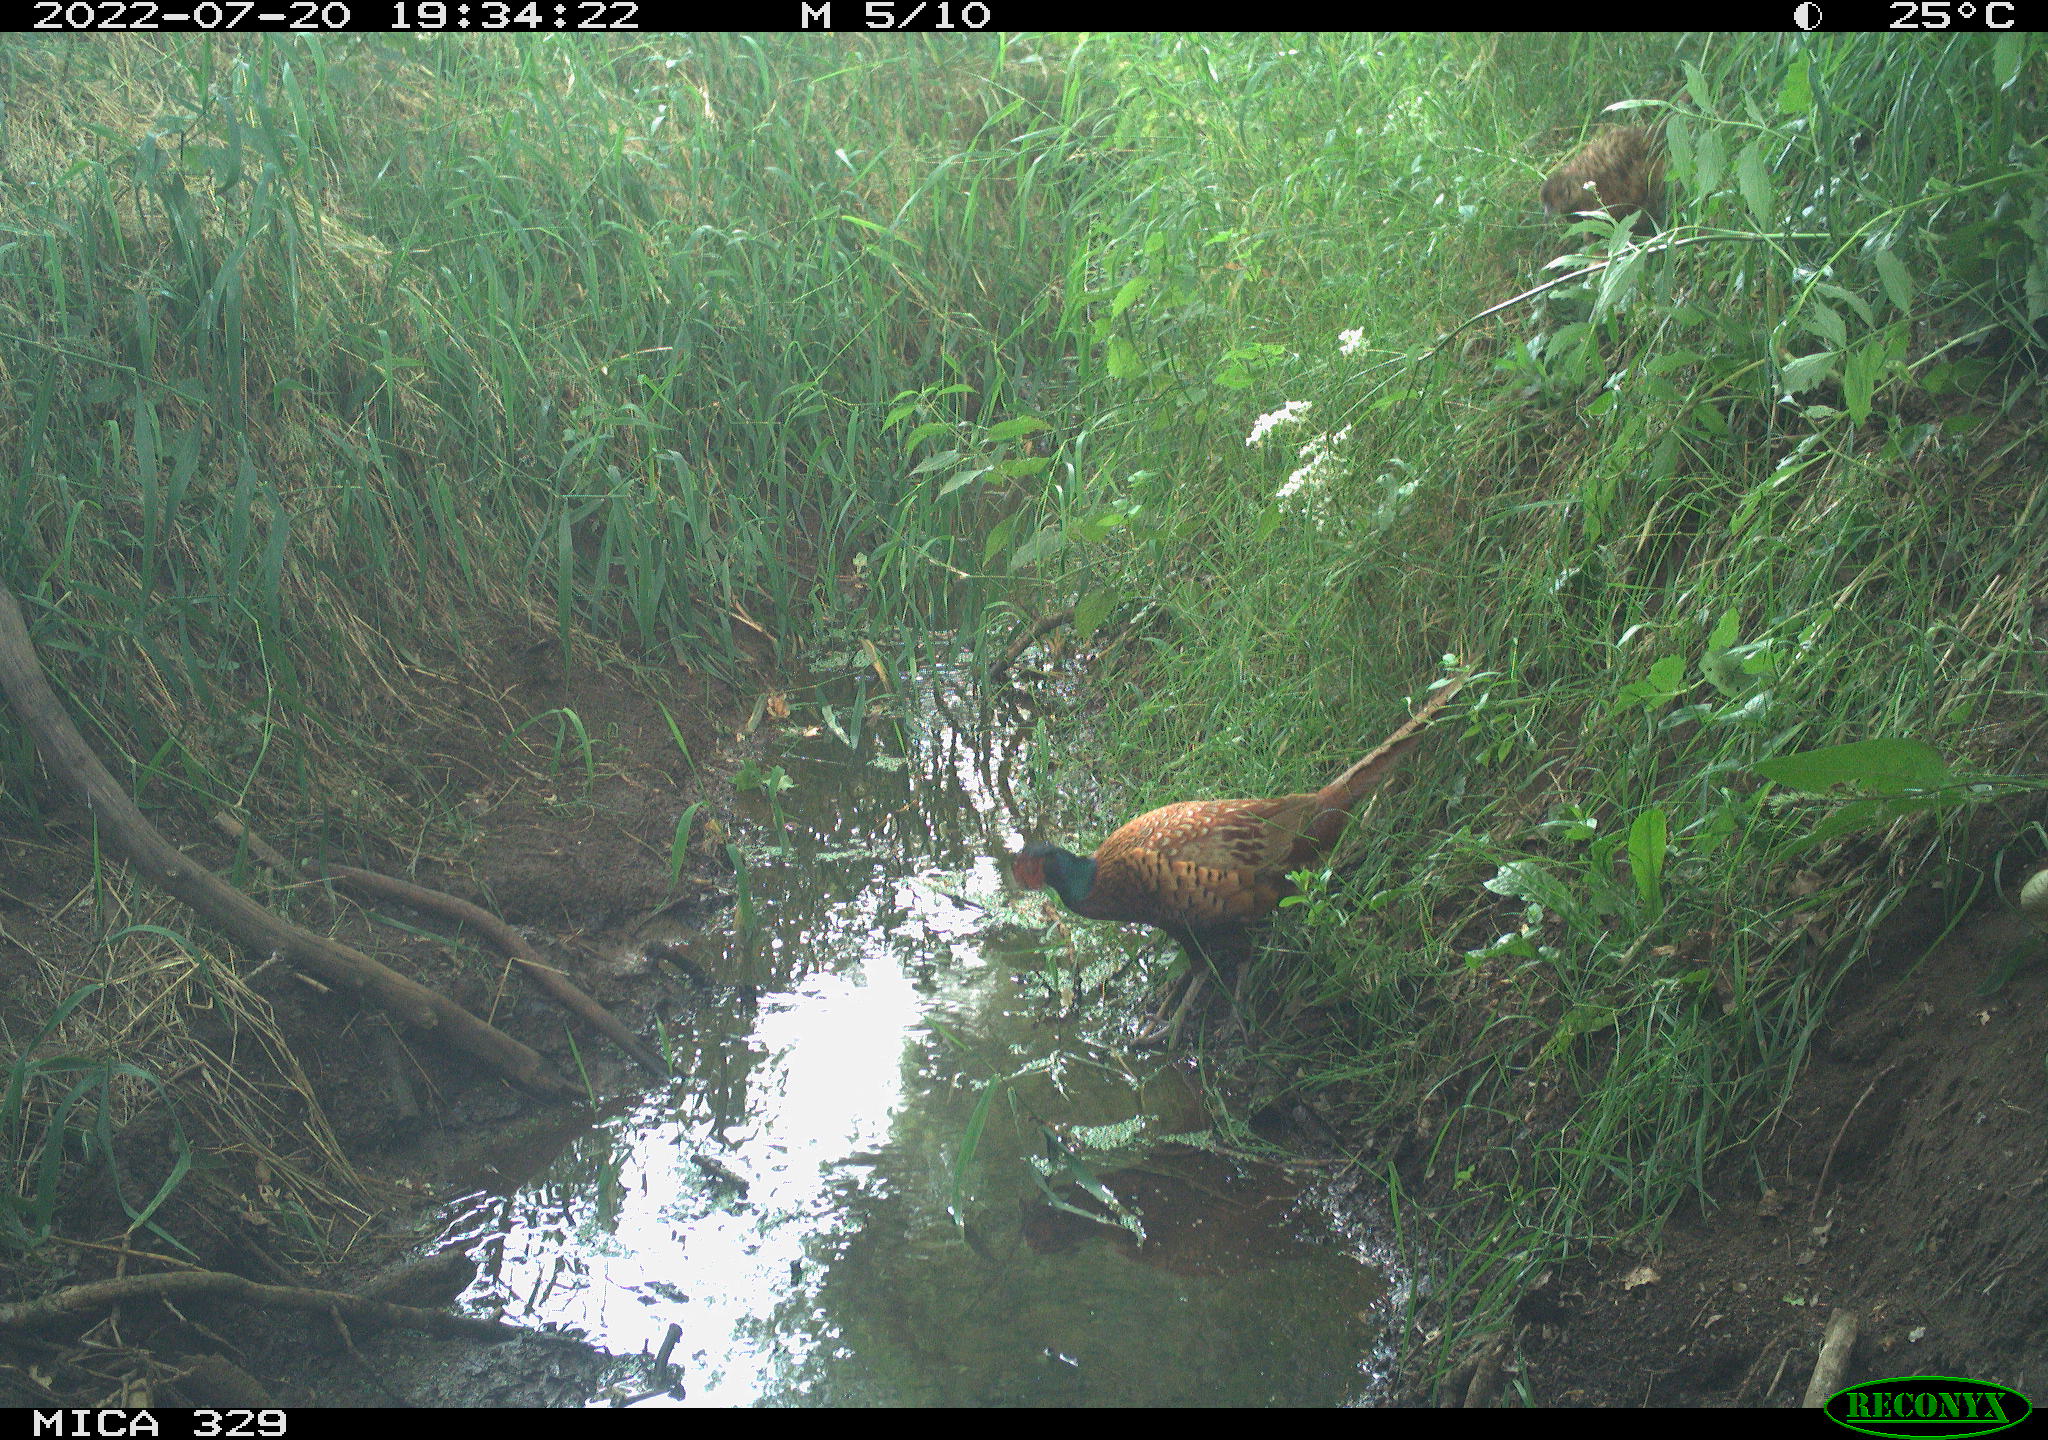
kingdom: Animalia
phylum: Chordata
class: Aves
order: Galliformes
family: Phasianidae
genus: Phasianus
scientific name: Phasianus colchicus
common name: Common pheasant
